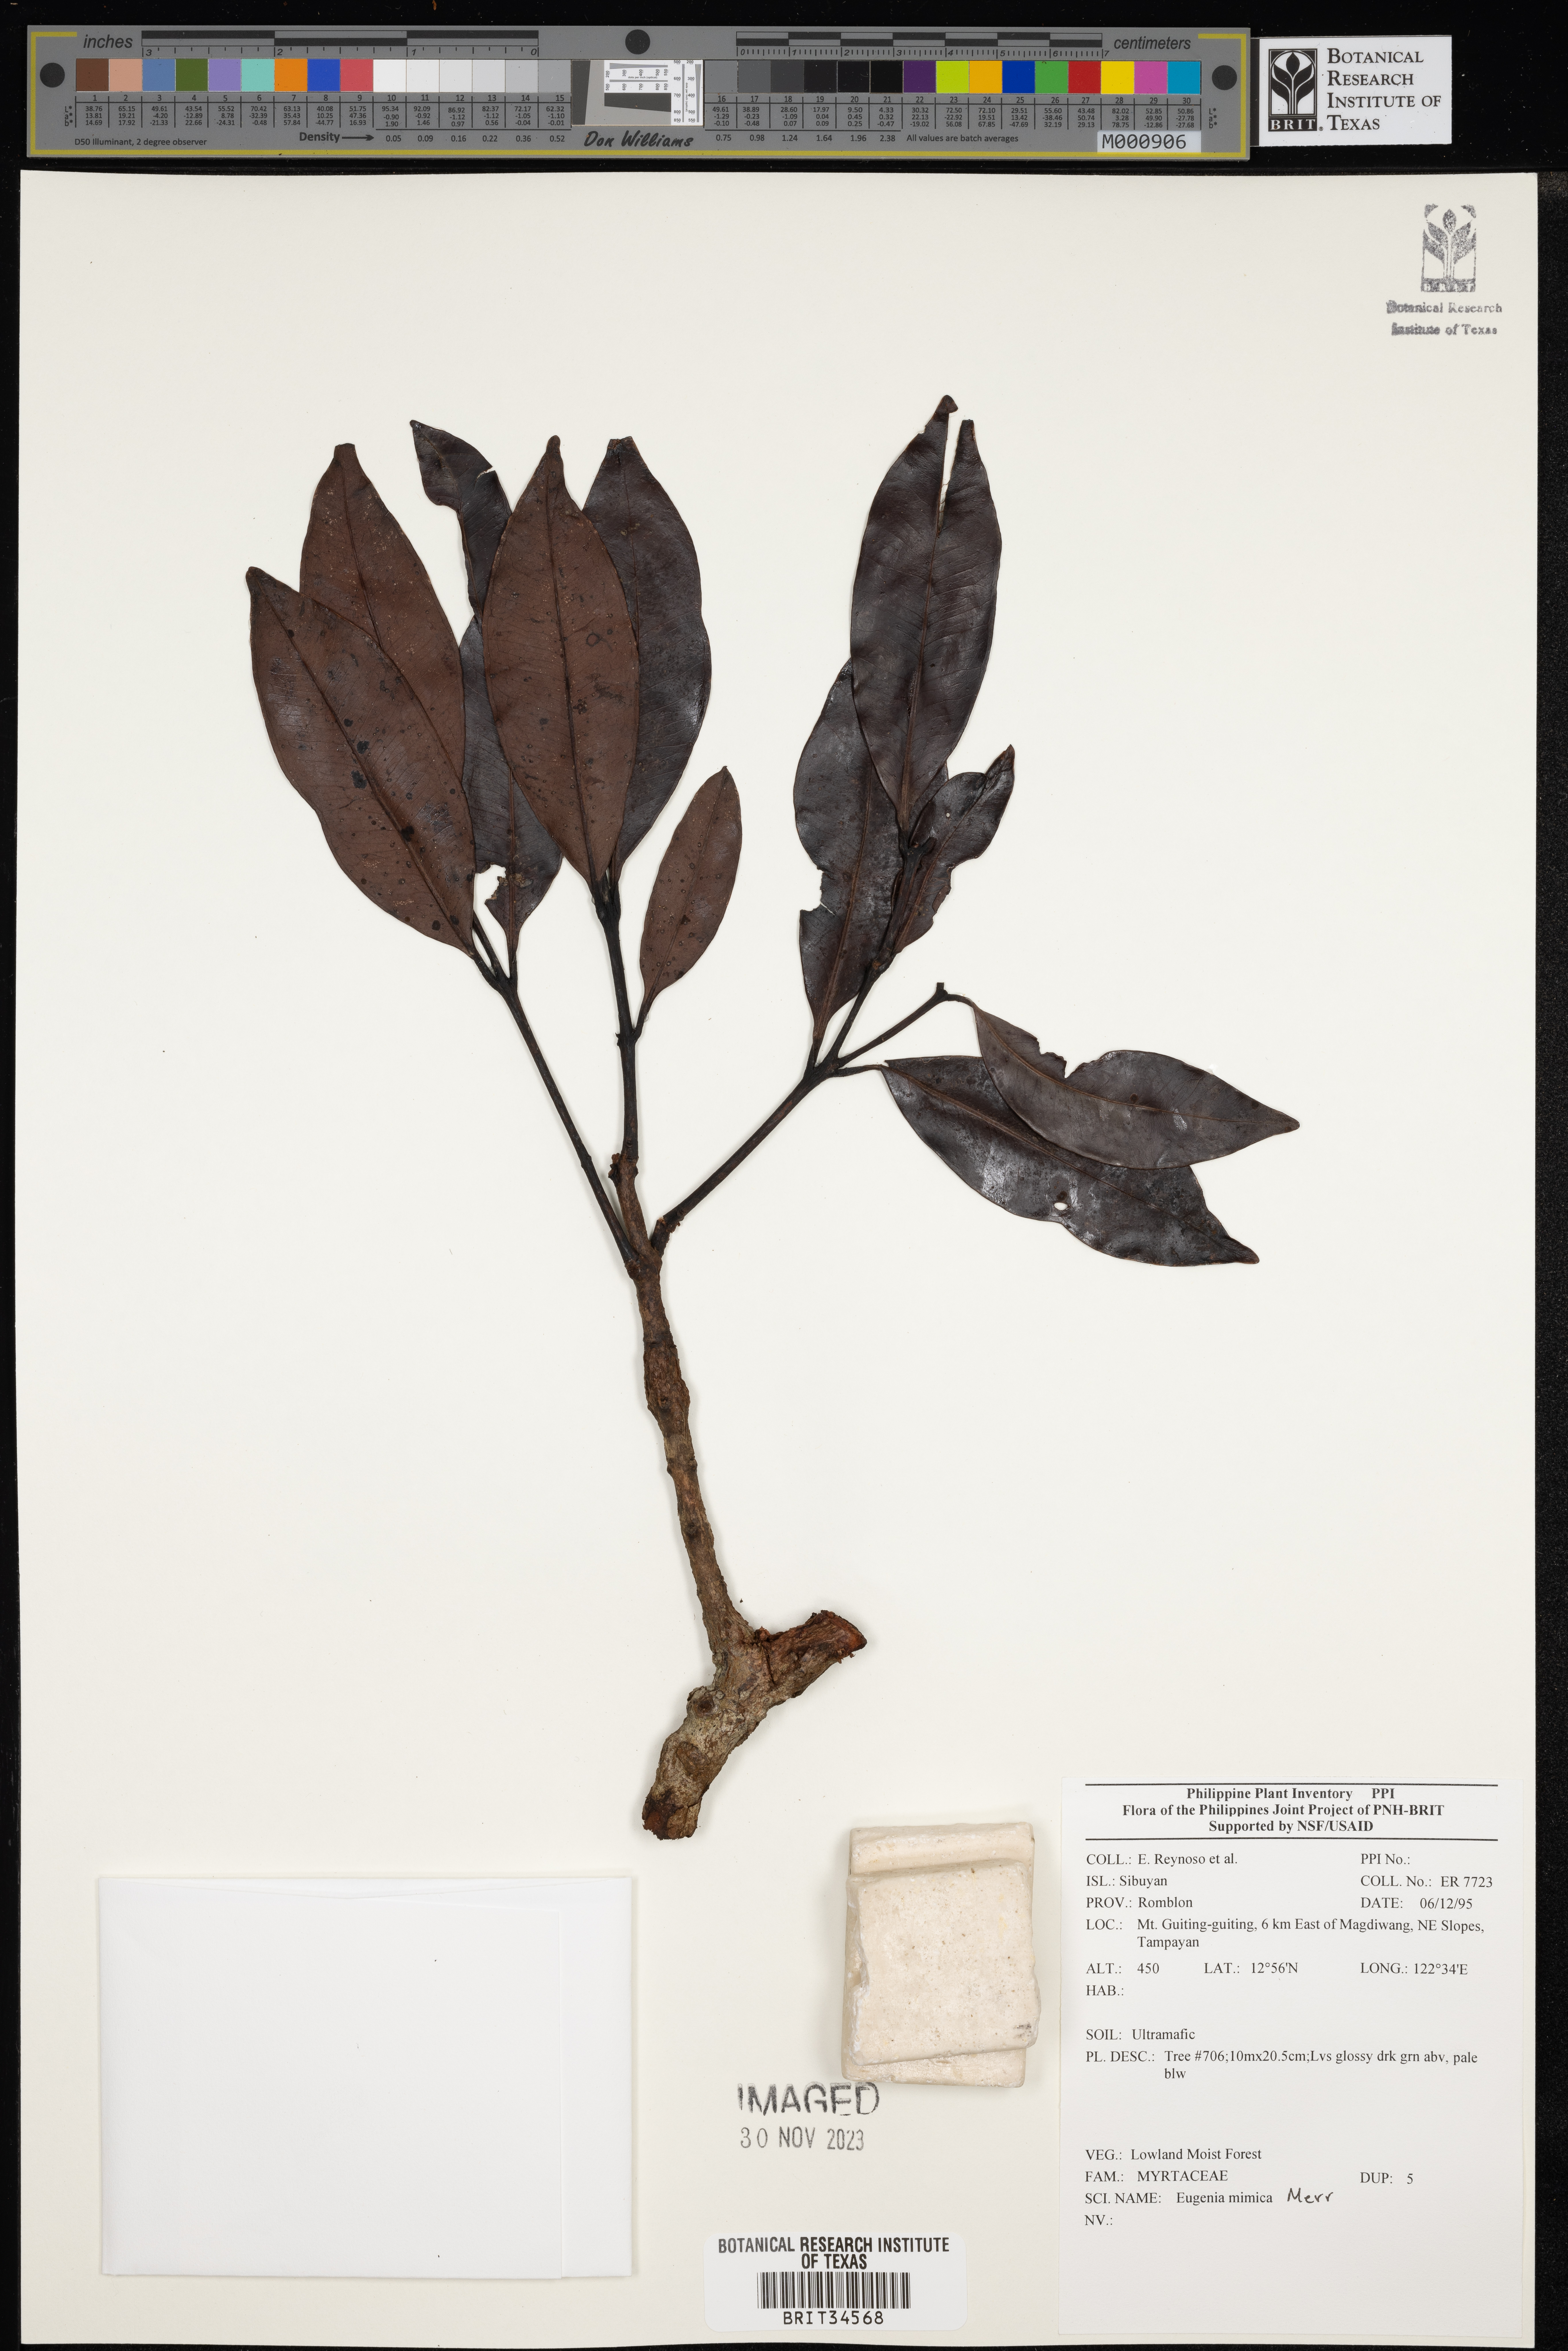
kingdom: Plantae
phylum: Tracheophyta
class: Magnoliopsida
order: Myrtales
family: Myrtaceae
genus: Eugenia
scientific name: Eugenia
